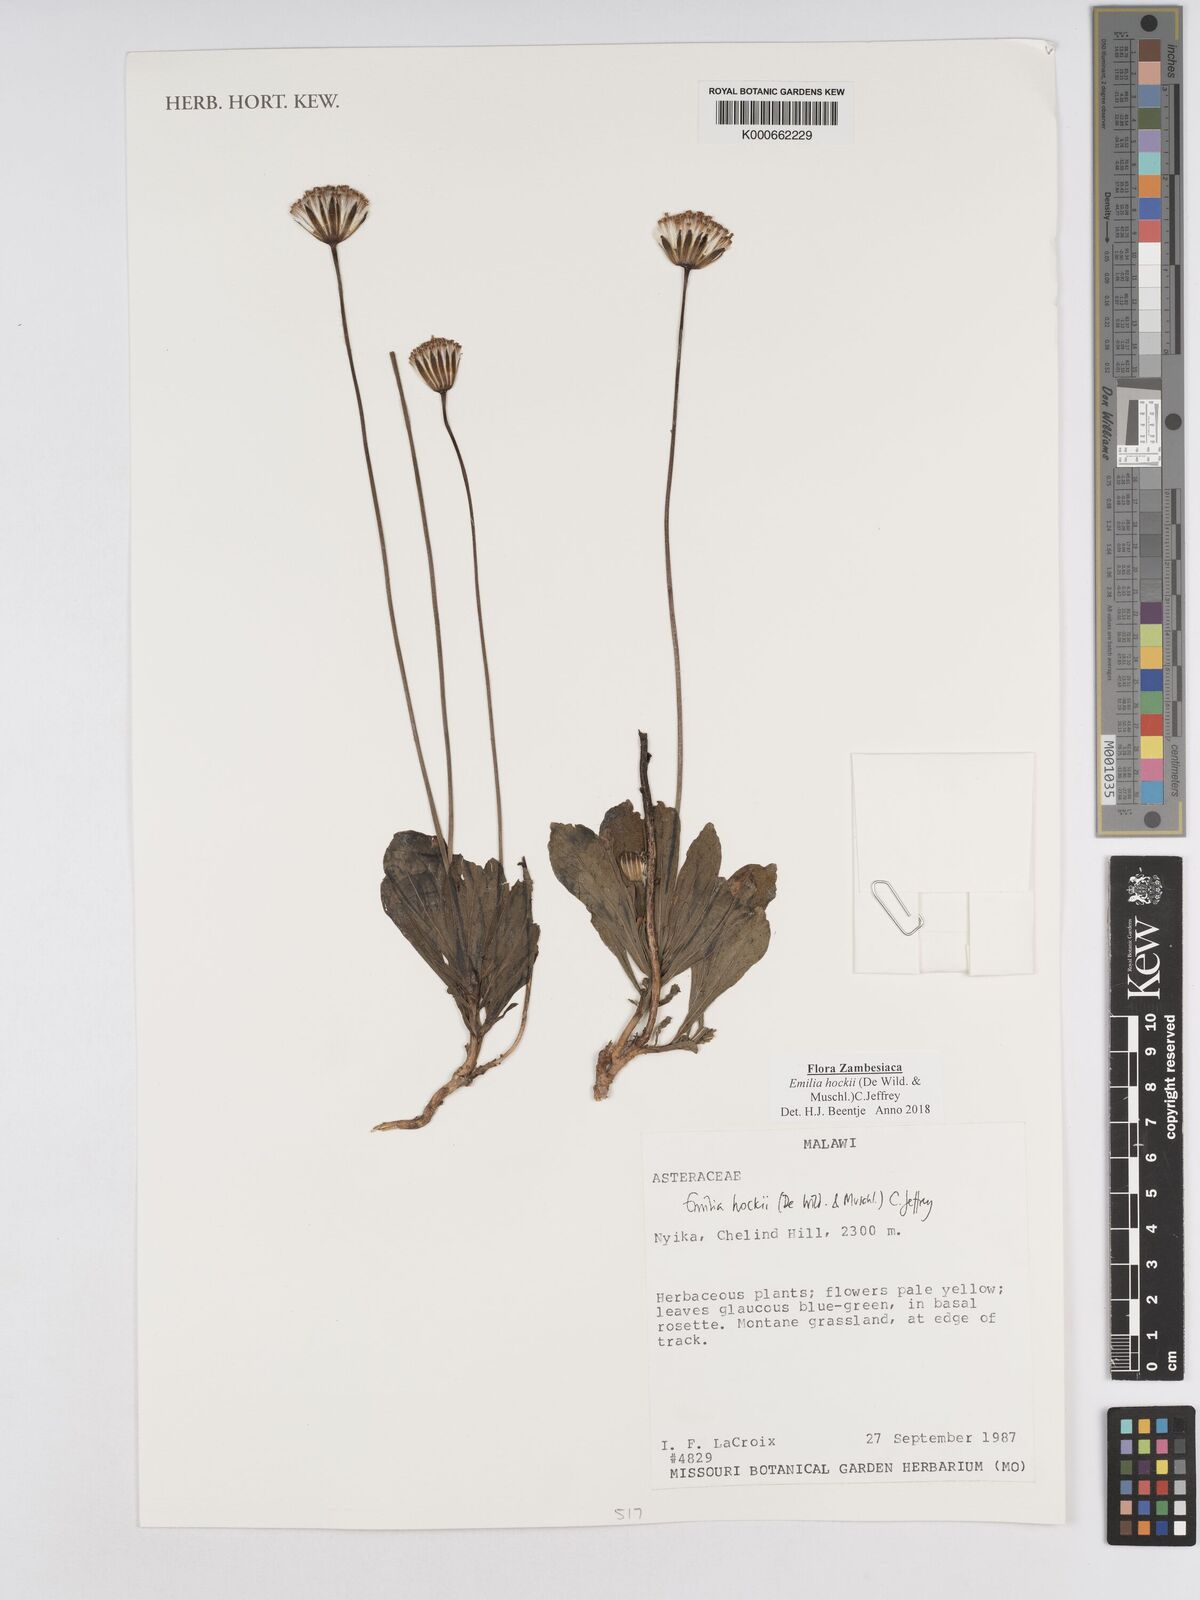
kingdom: Plantae
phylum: Tracheophyta
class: Magnoliopsida
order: Asterales
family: Asteraceae
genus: Emilia
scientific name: Emilia
